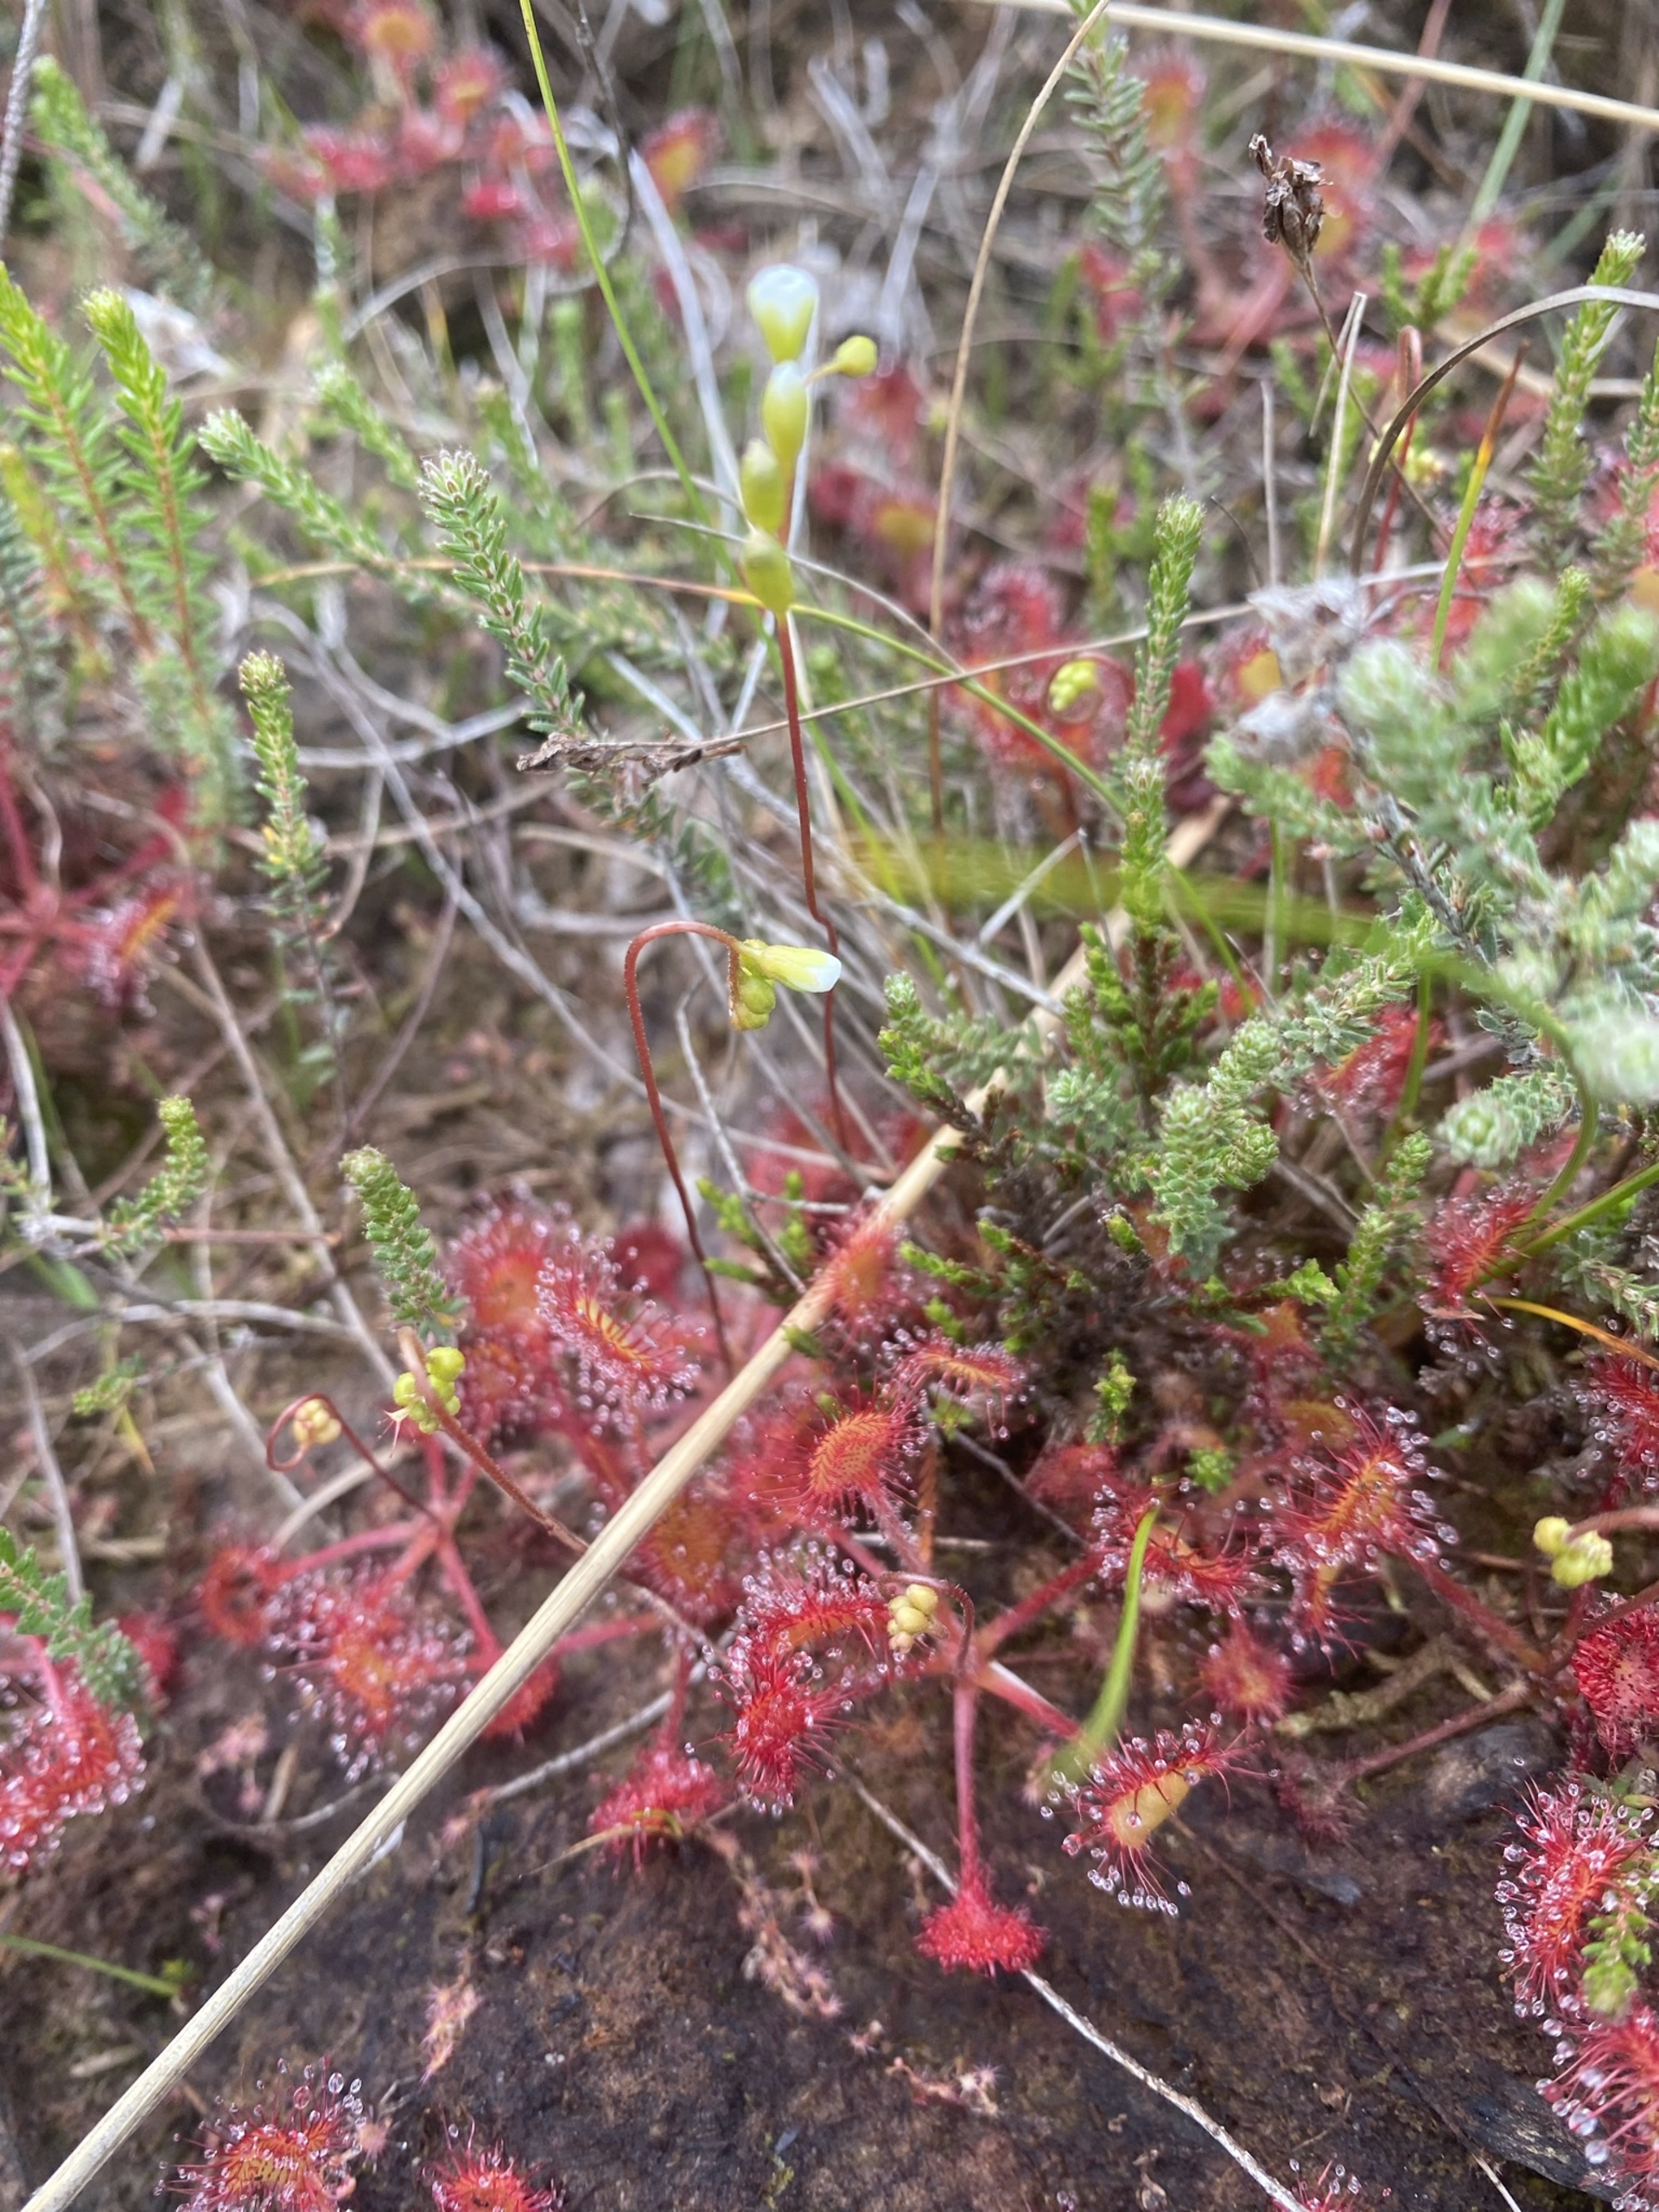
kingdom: Plantae
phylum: Tracheophyta
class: Magnoliopsida
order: Caryophyllales
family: Droseraceae
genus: Drosera
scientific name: Drosera rotundifolia
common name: Rundbladet soldug
